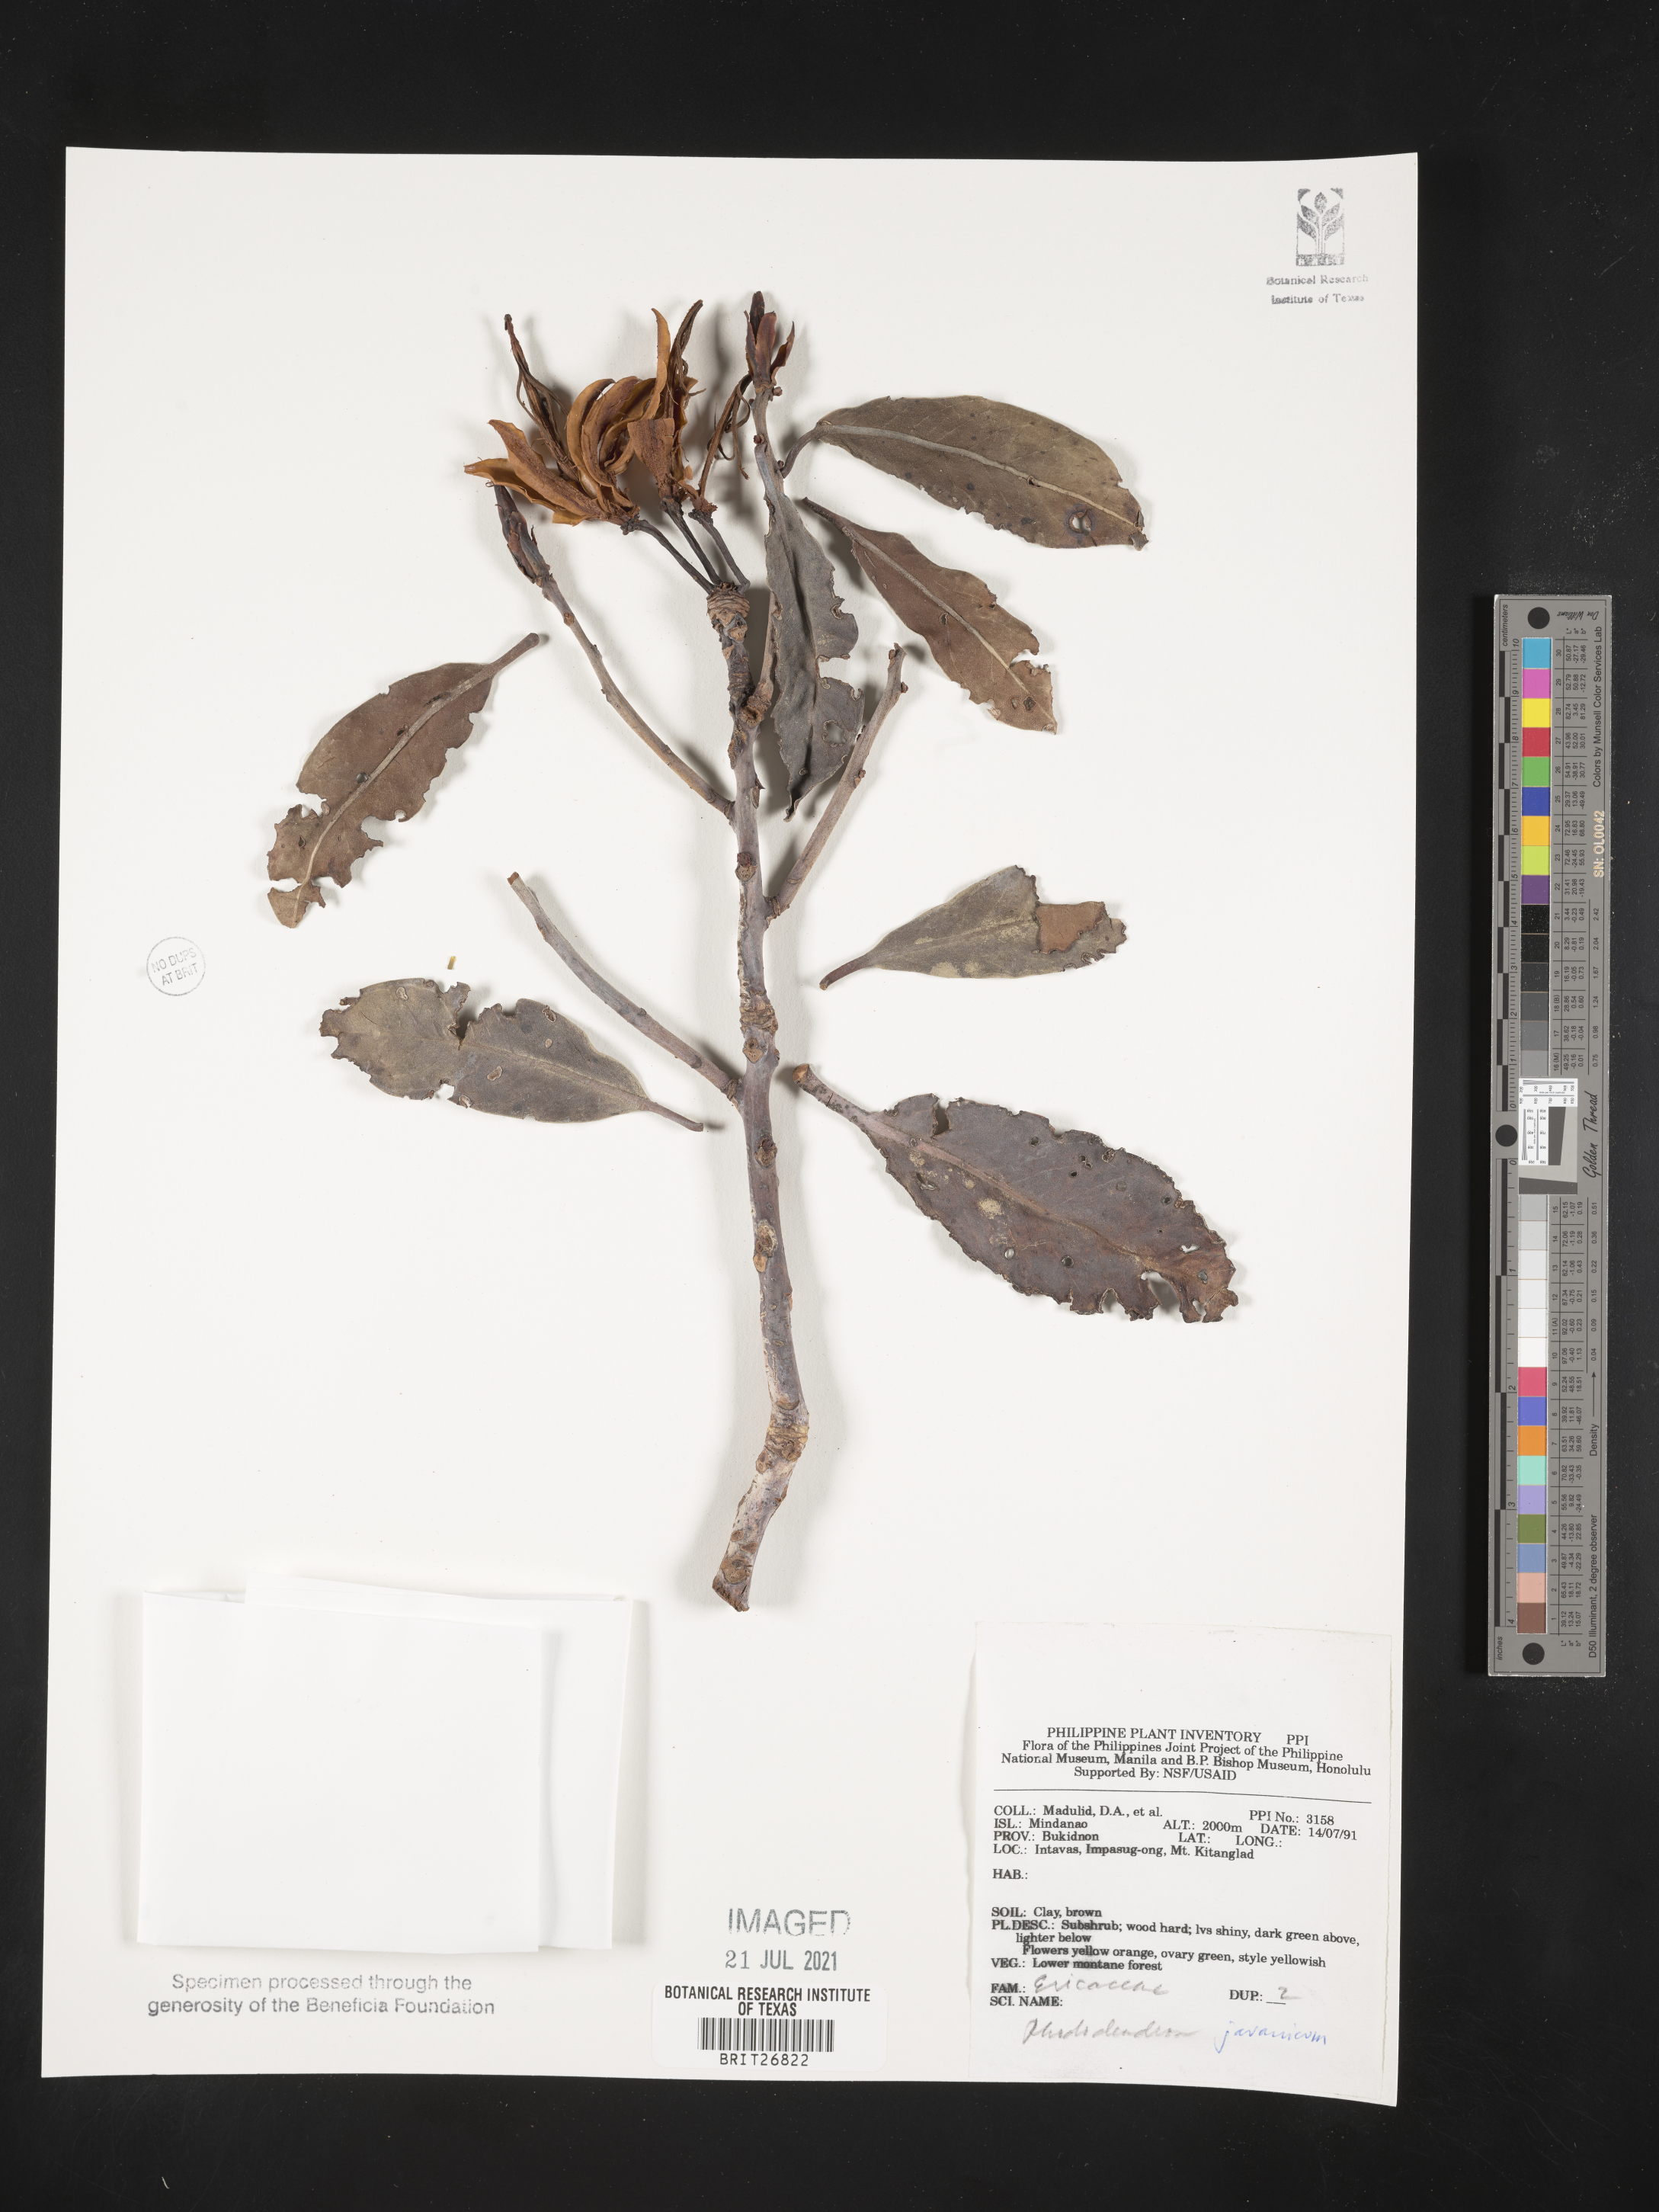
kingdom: Plantae
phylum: Tracheophyta
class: Magnoliopsida
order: Ericales
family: Ericaceae
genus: Rhododendron
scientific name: Rhododendron javanicum
